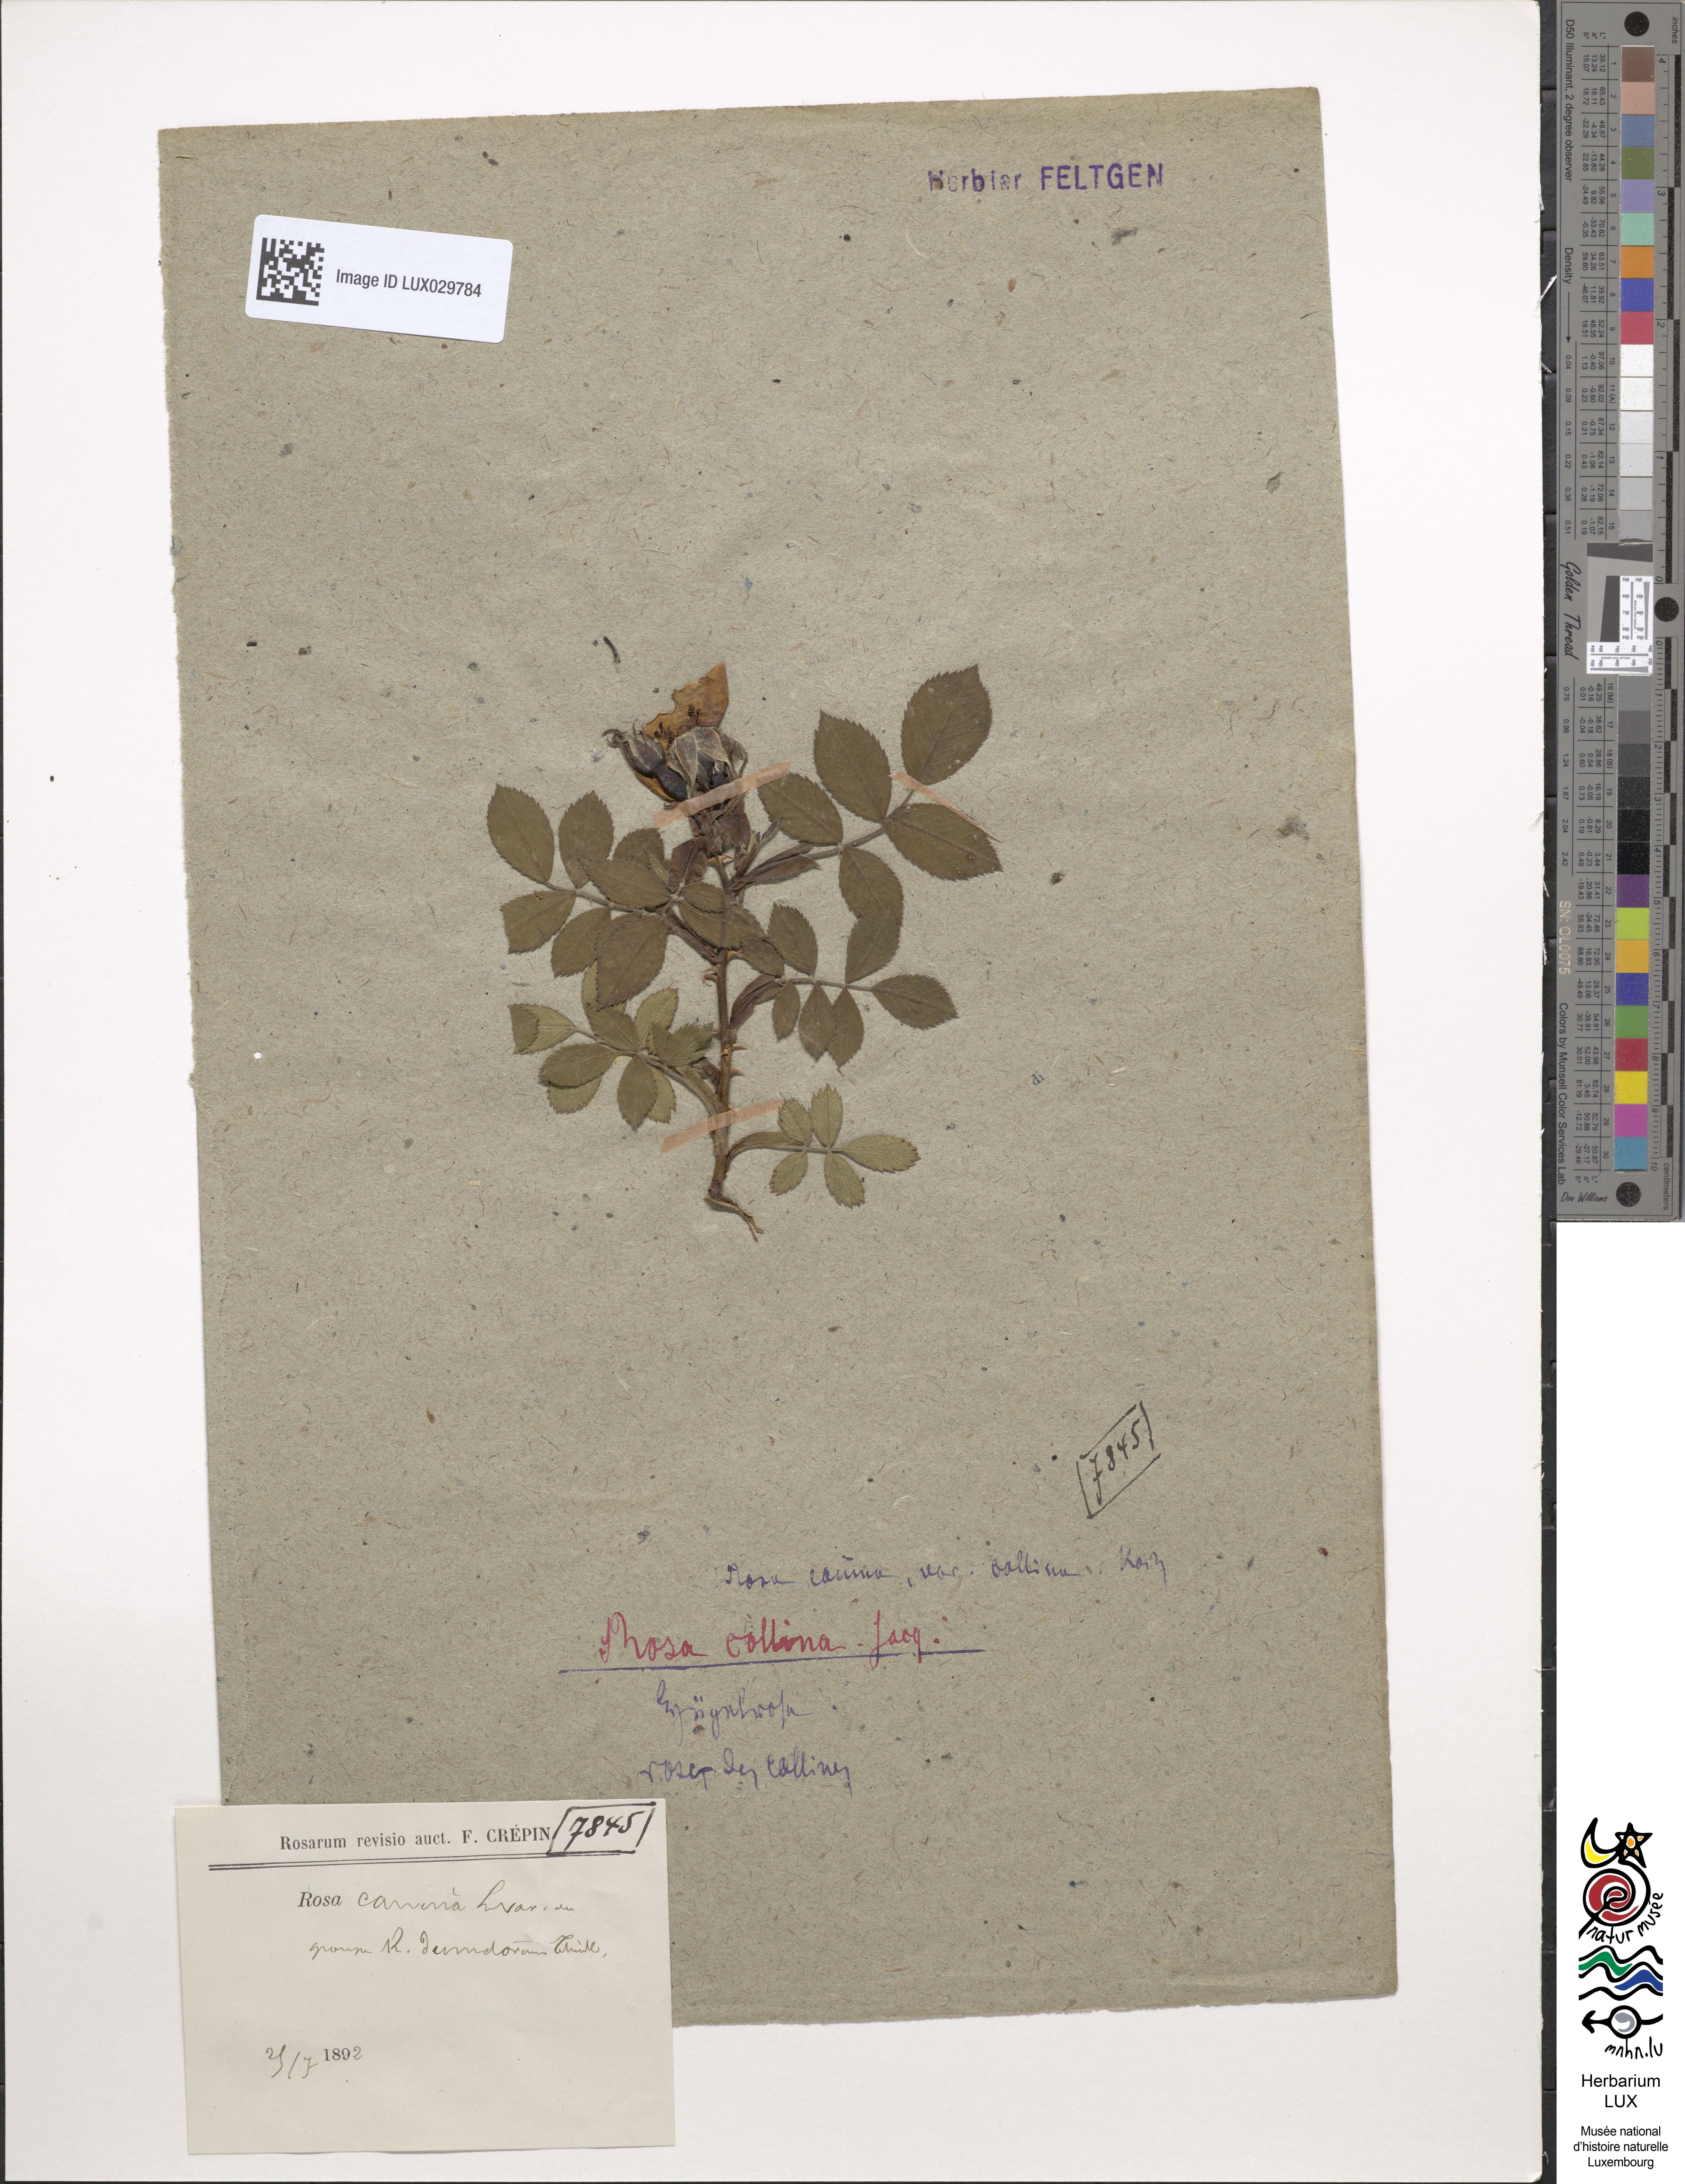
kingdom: Plantae
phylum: Tracheophyta
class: Magnoliopsida
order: Rosales
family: Rosaceae
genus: Rosa
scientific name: Rosa corymbifera
